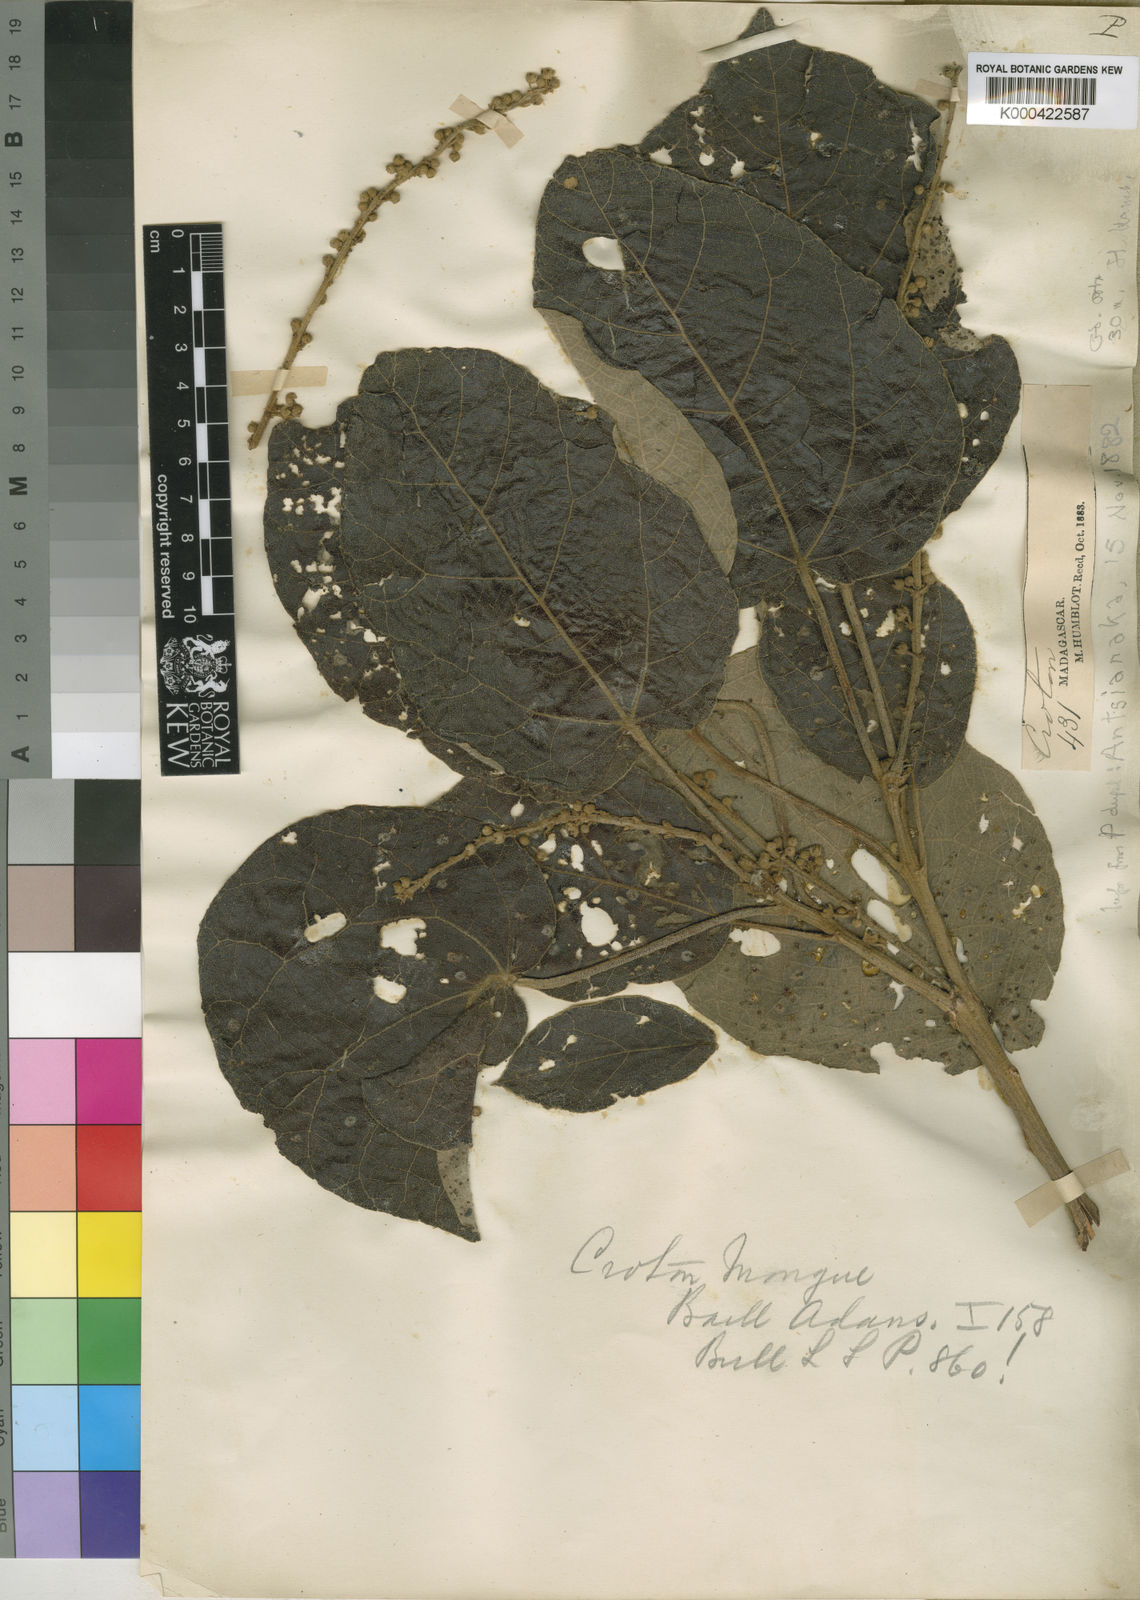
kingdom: Plantae
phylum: Tracheophyta
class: Magnoliopsida
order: Malpighiales
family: Euphorbiaceae
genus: Croton
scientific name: Croton mongue
